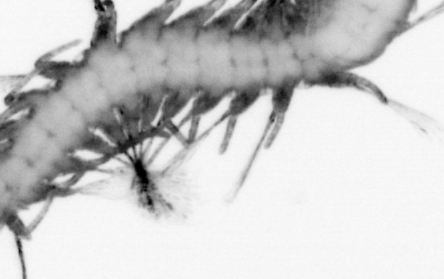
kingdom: Animalia
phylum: Annelida
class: Polychaeta
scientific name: Polychaeta
